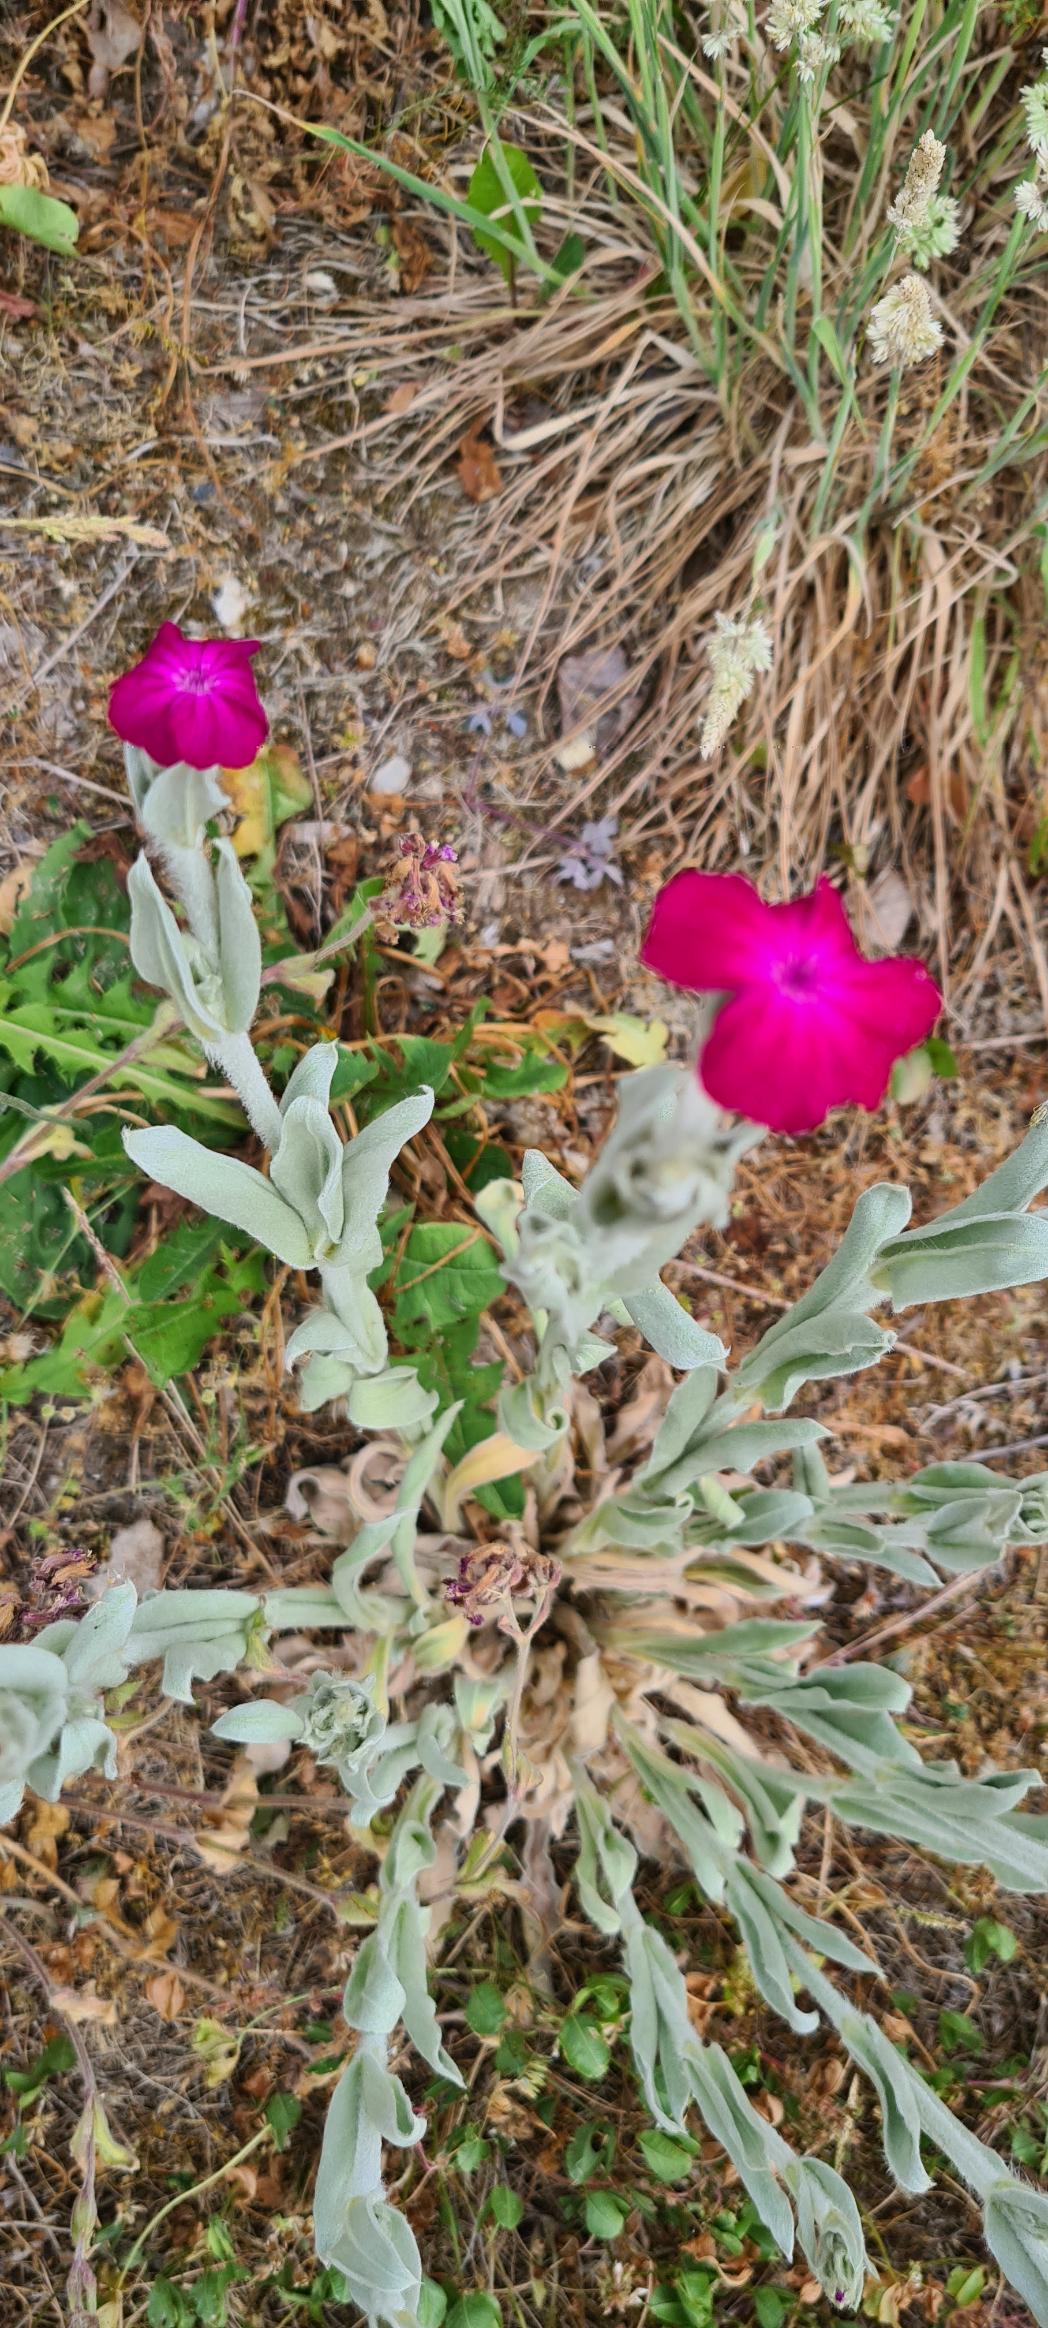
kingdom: Plantae
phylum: Tracheophyta
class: Magnoliopsida
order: Caryophyllales
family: Caryophyllaceae
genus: Silene
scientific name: Silene coronaria
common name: Fiksernellike
